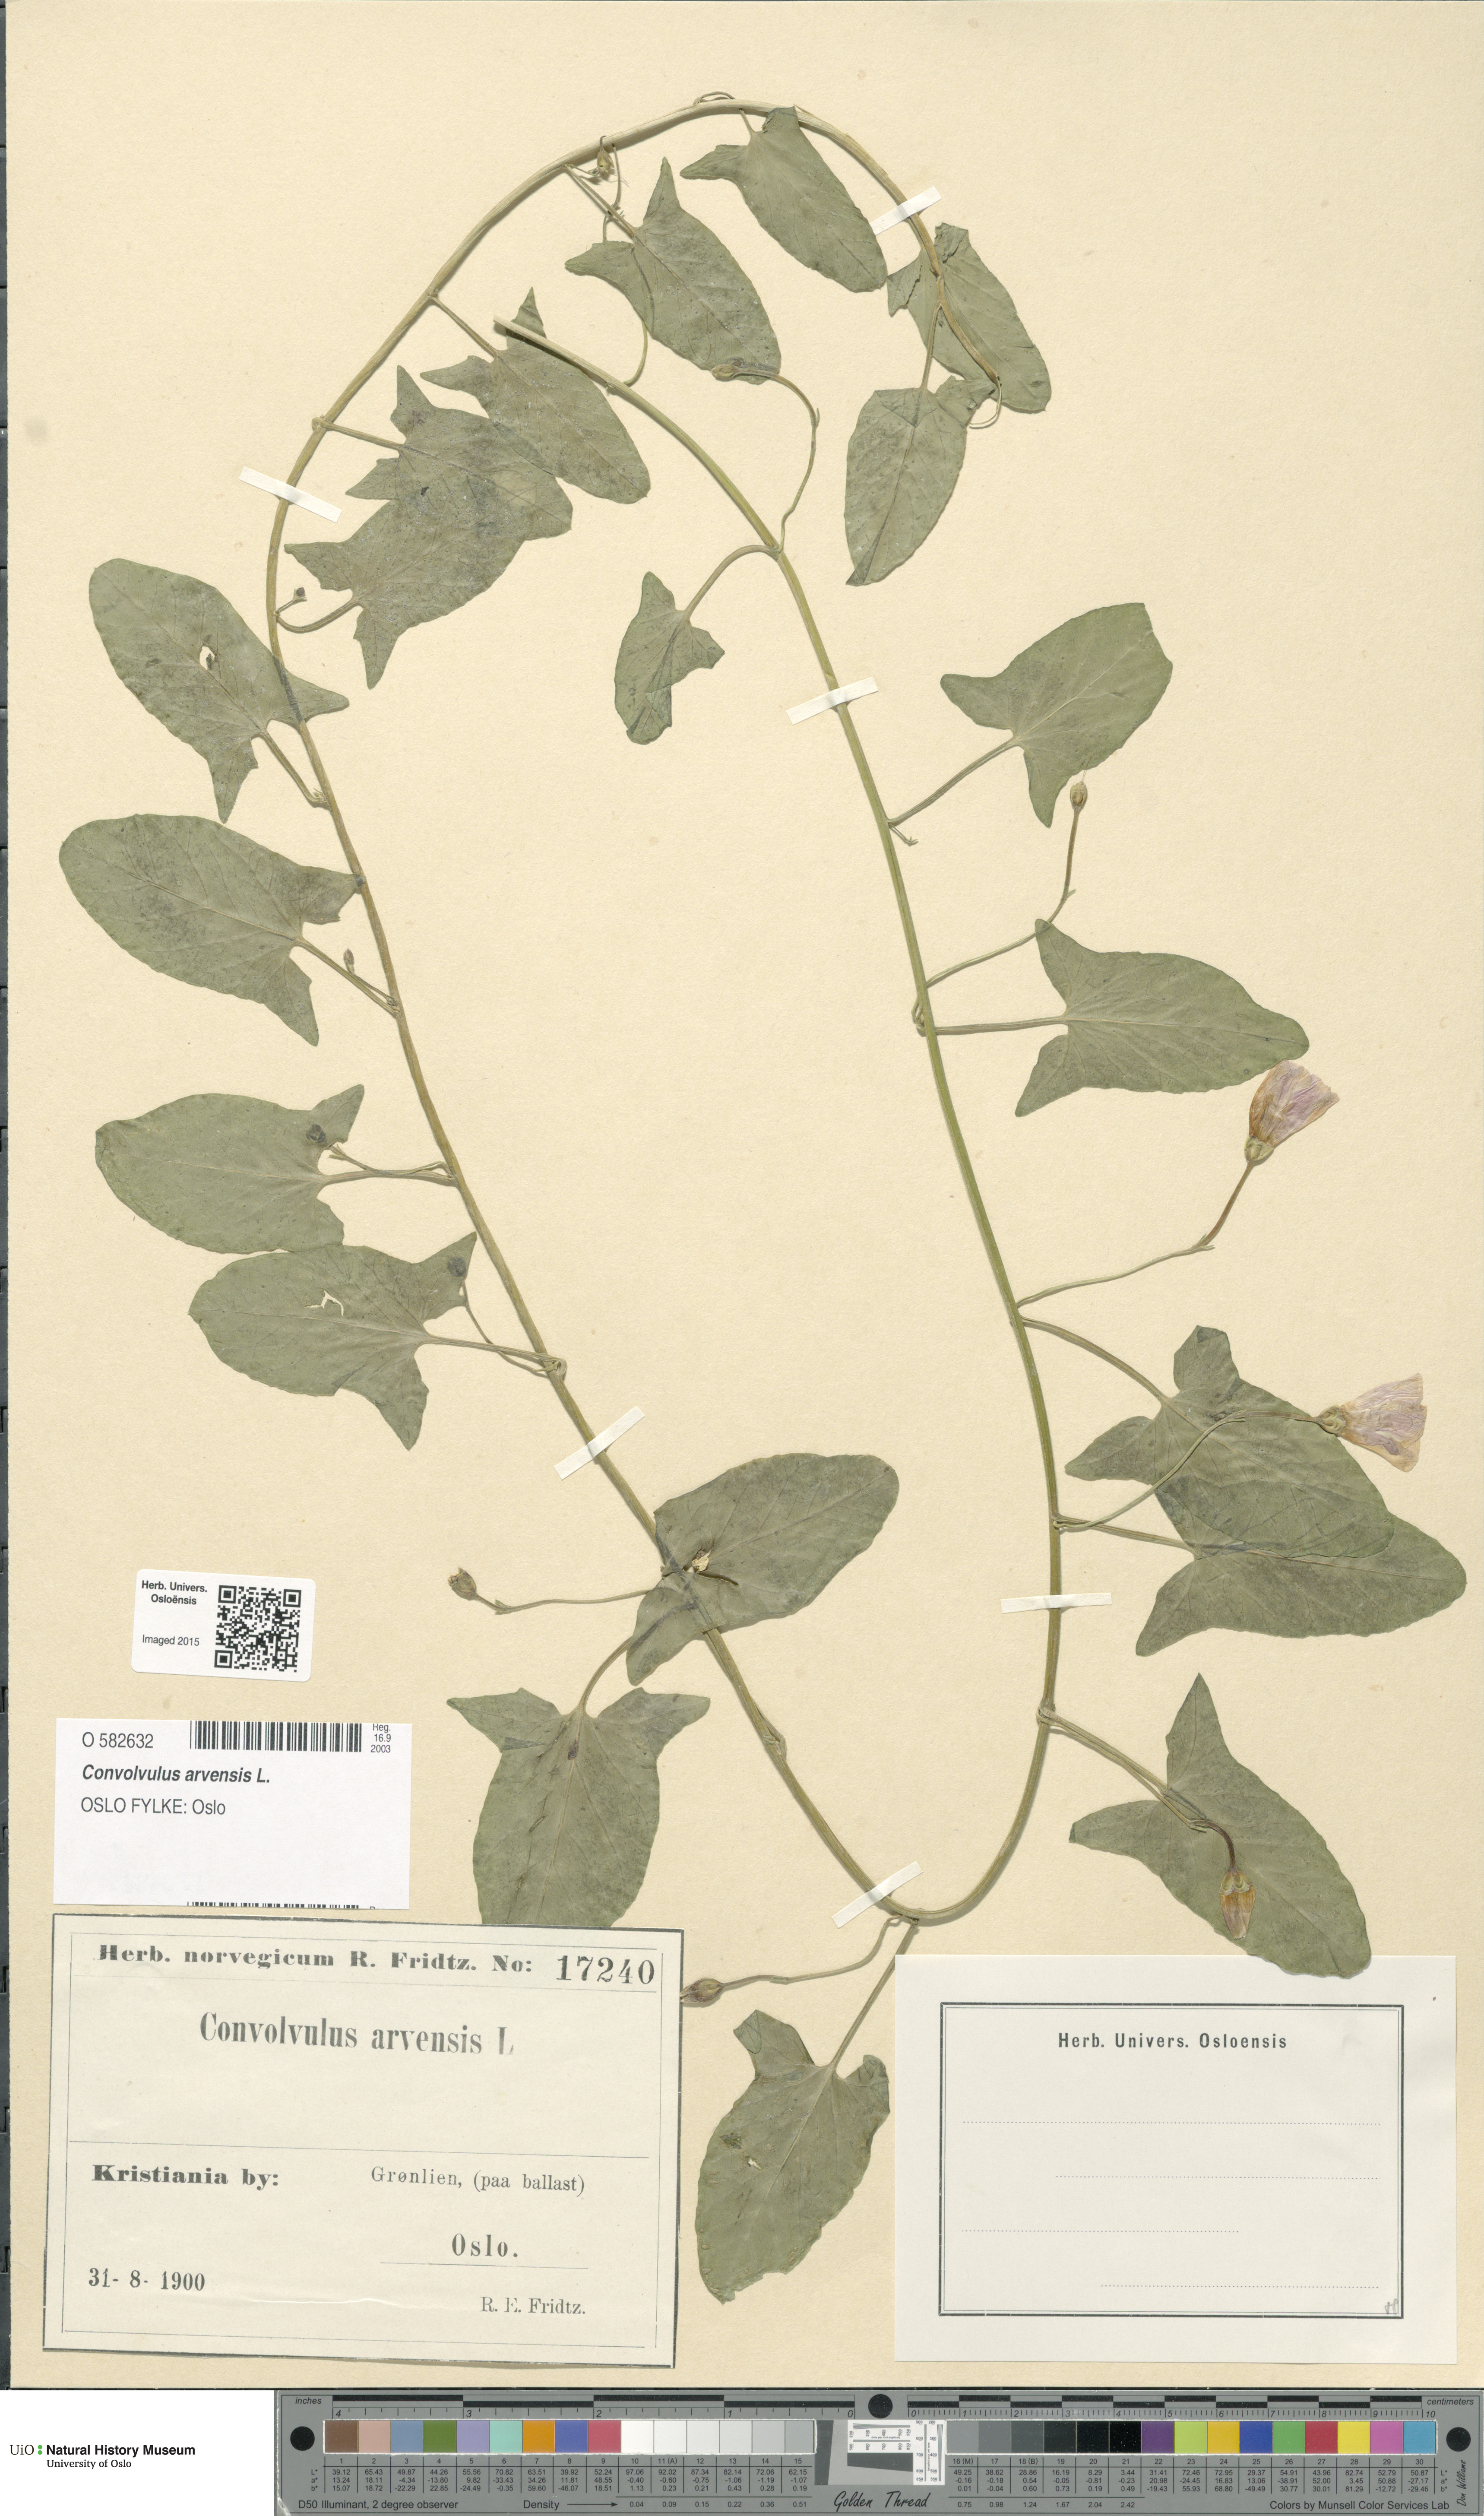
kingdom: Plantae
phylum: Tracheophyta
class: Magnoliopsida
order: Solanales
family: Convolvulaceae
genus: Convolvulus
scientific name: Convolvulus arvensis
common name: Field bindweed
